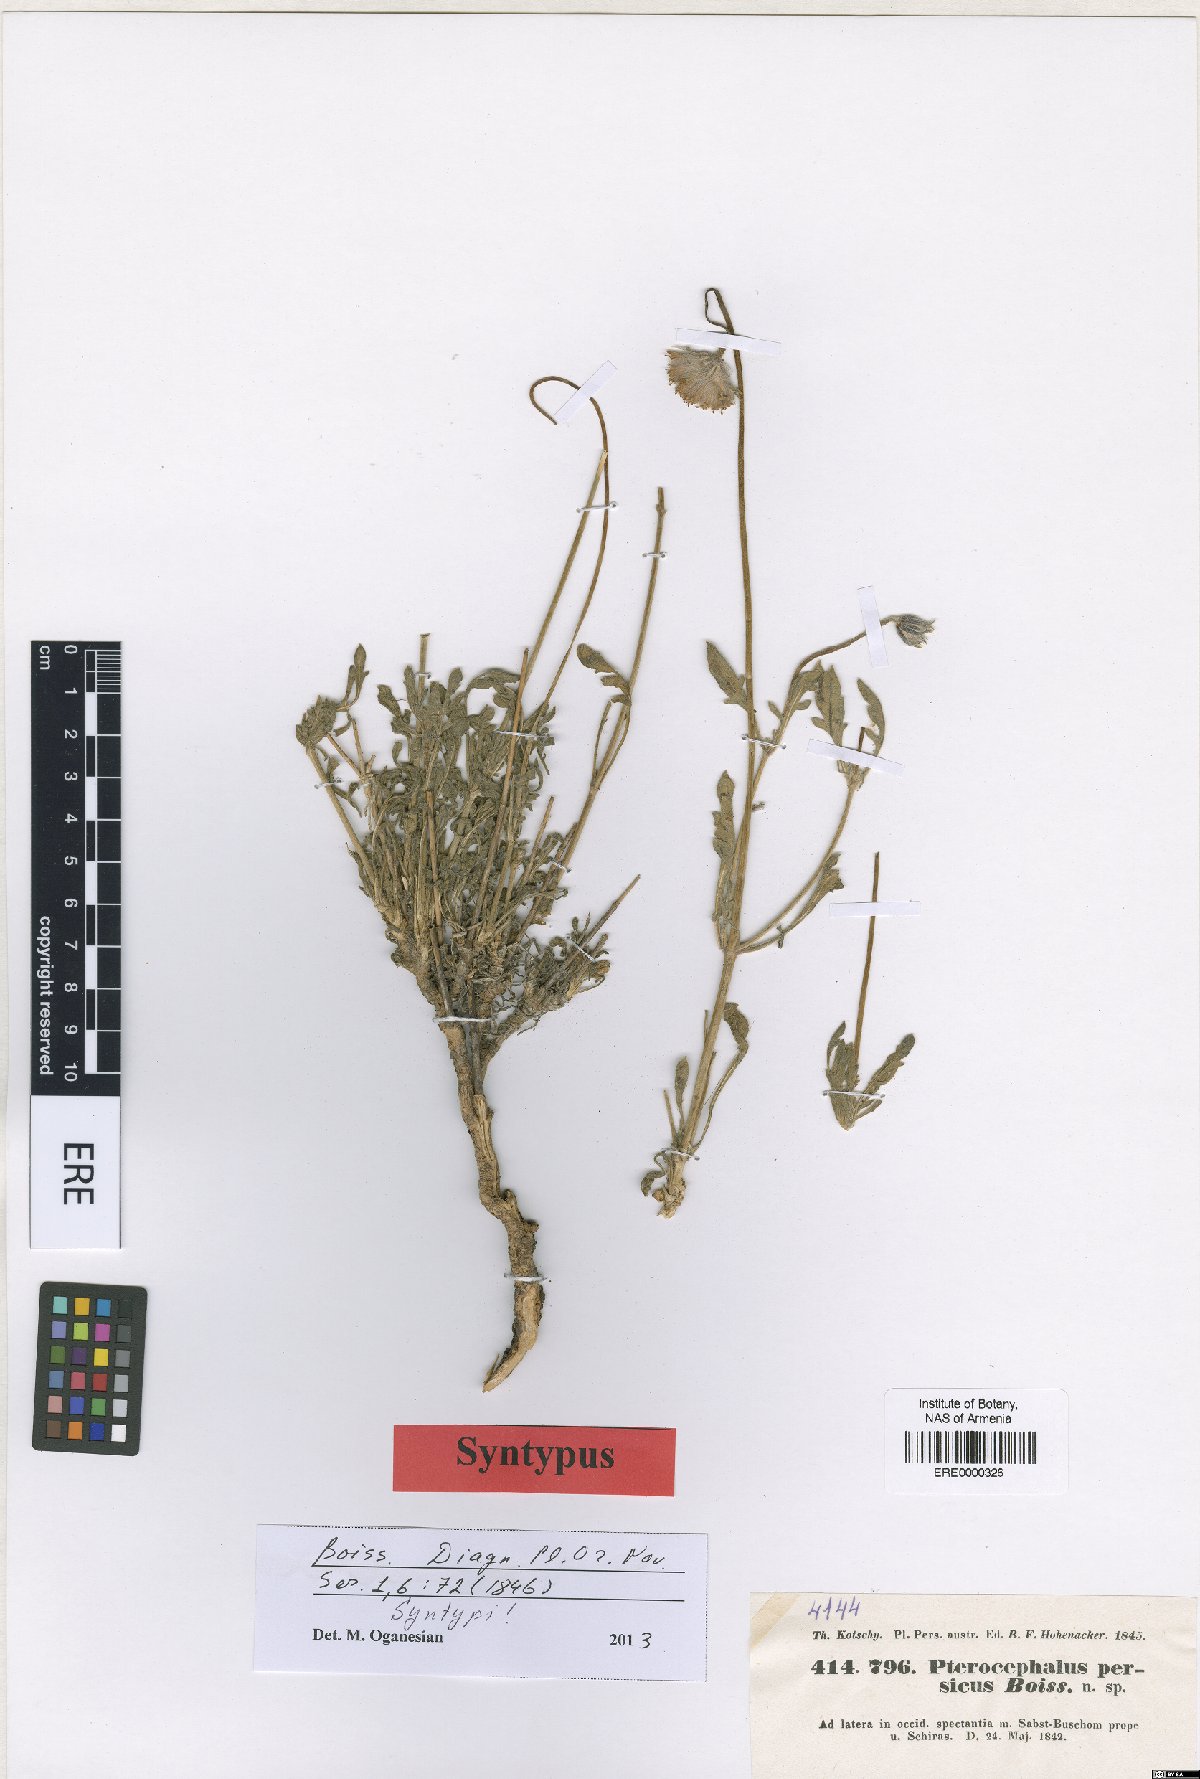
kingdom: Plantae
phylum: Tracheophyta
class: Magnoliopsida
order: Dipsacales
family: Caprifoliaceae
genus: Pterocephalus
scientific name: Pterocephalus persicus
